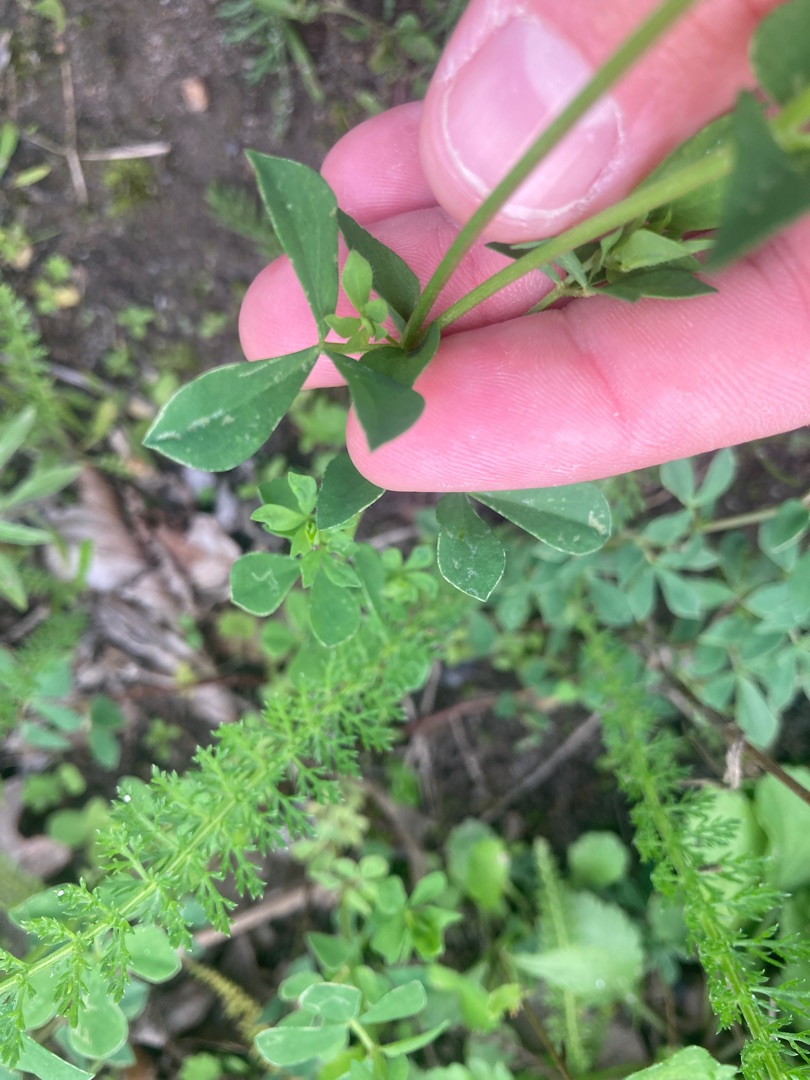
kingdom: Plantae
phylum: Tracheophyta
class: Magnoliopsida
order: Fabales
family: Fabaceae
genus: Lotus
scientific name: Lotus corniculatus
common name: Almindelig kællingetand
